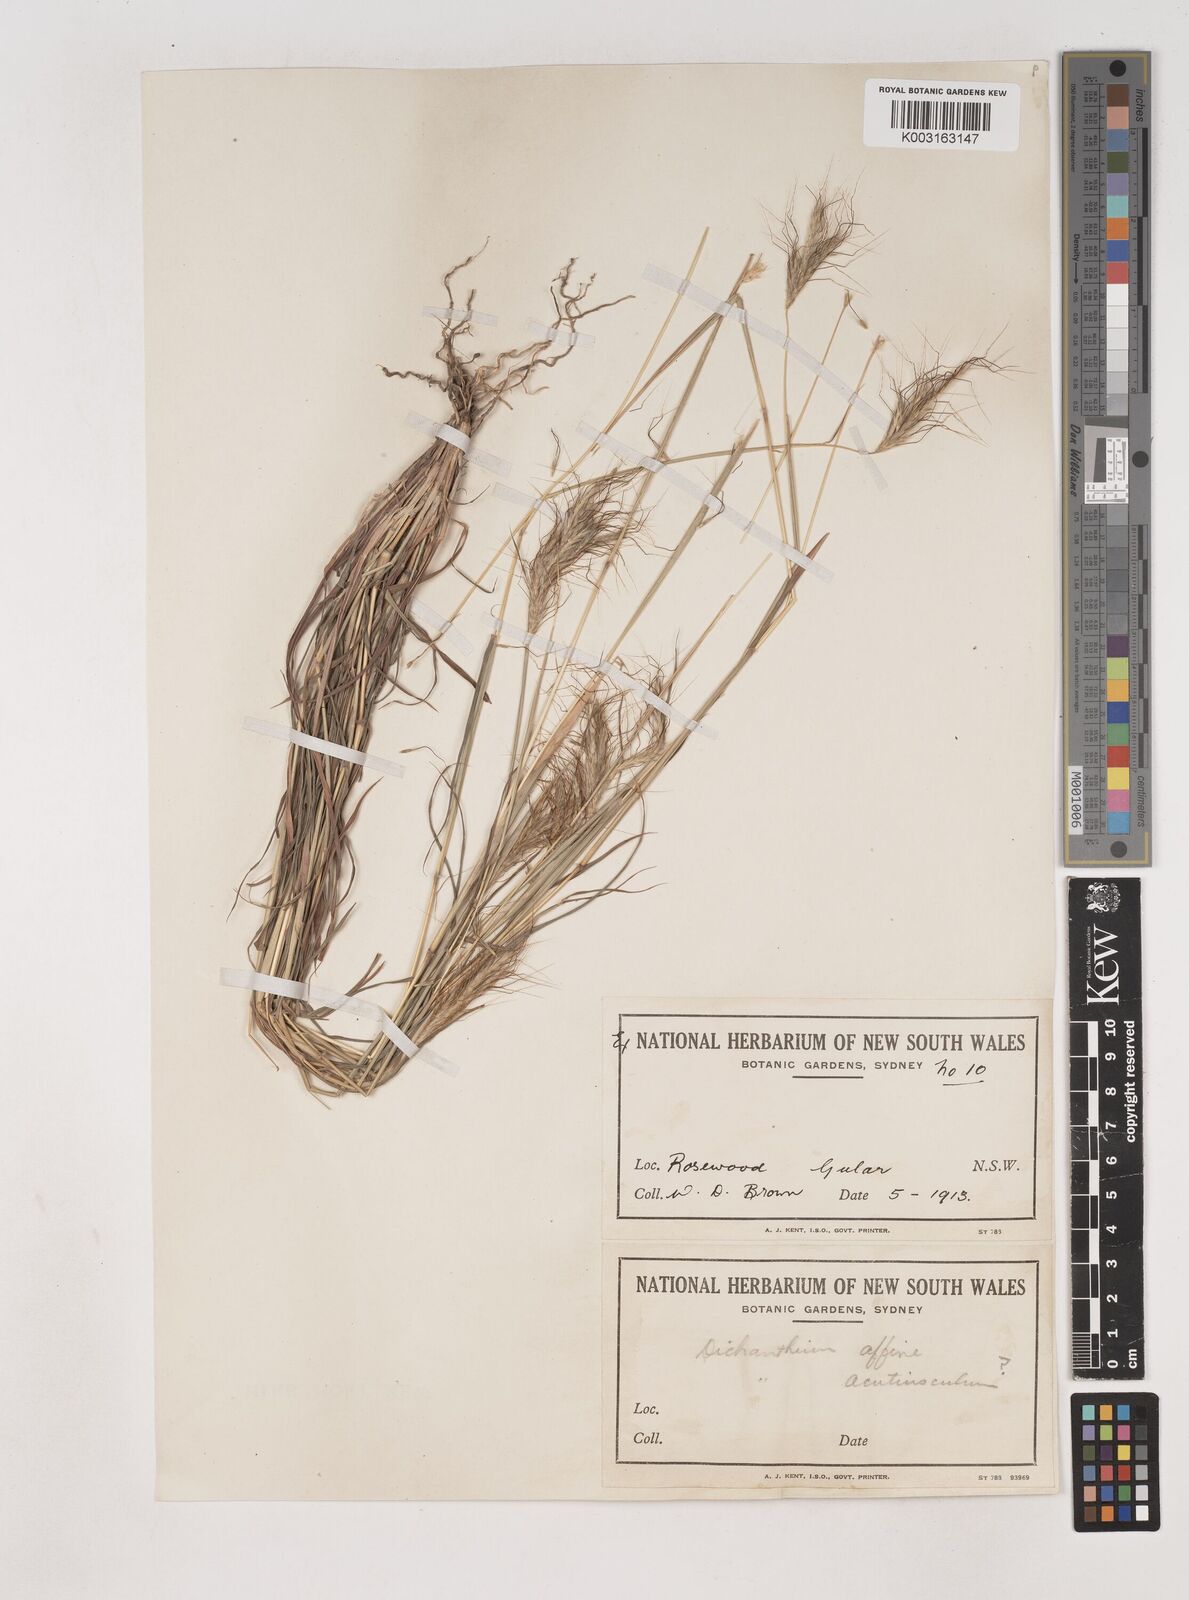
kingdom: Plantae
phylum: Tracheophyta
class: Liliopsida
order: Poales
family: Poaceae
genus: Dichanthium
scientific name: Dichanthium sericeum
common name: Silky bluestem
